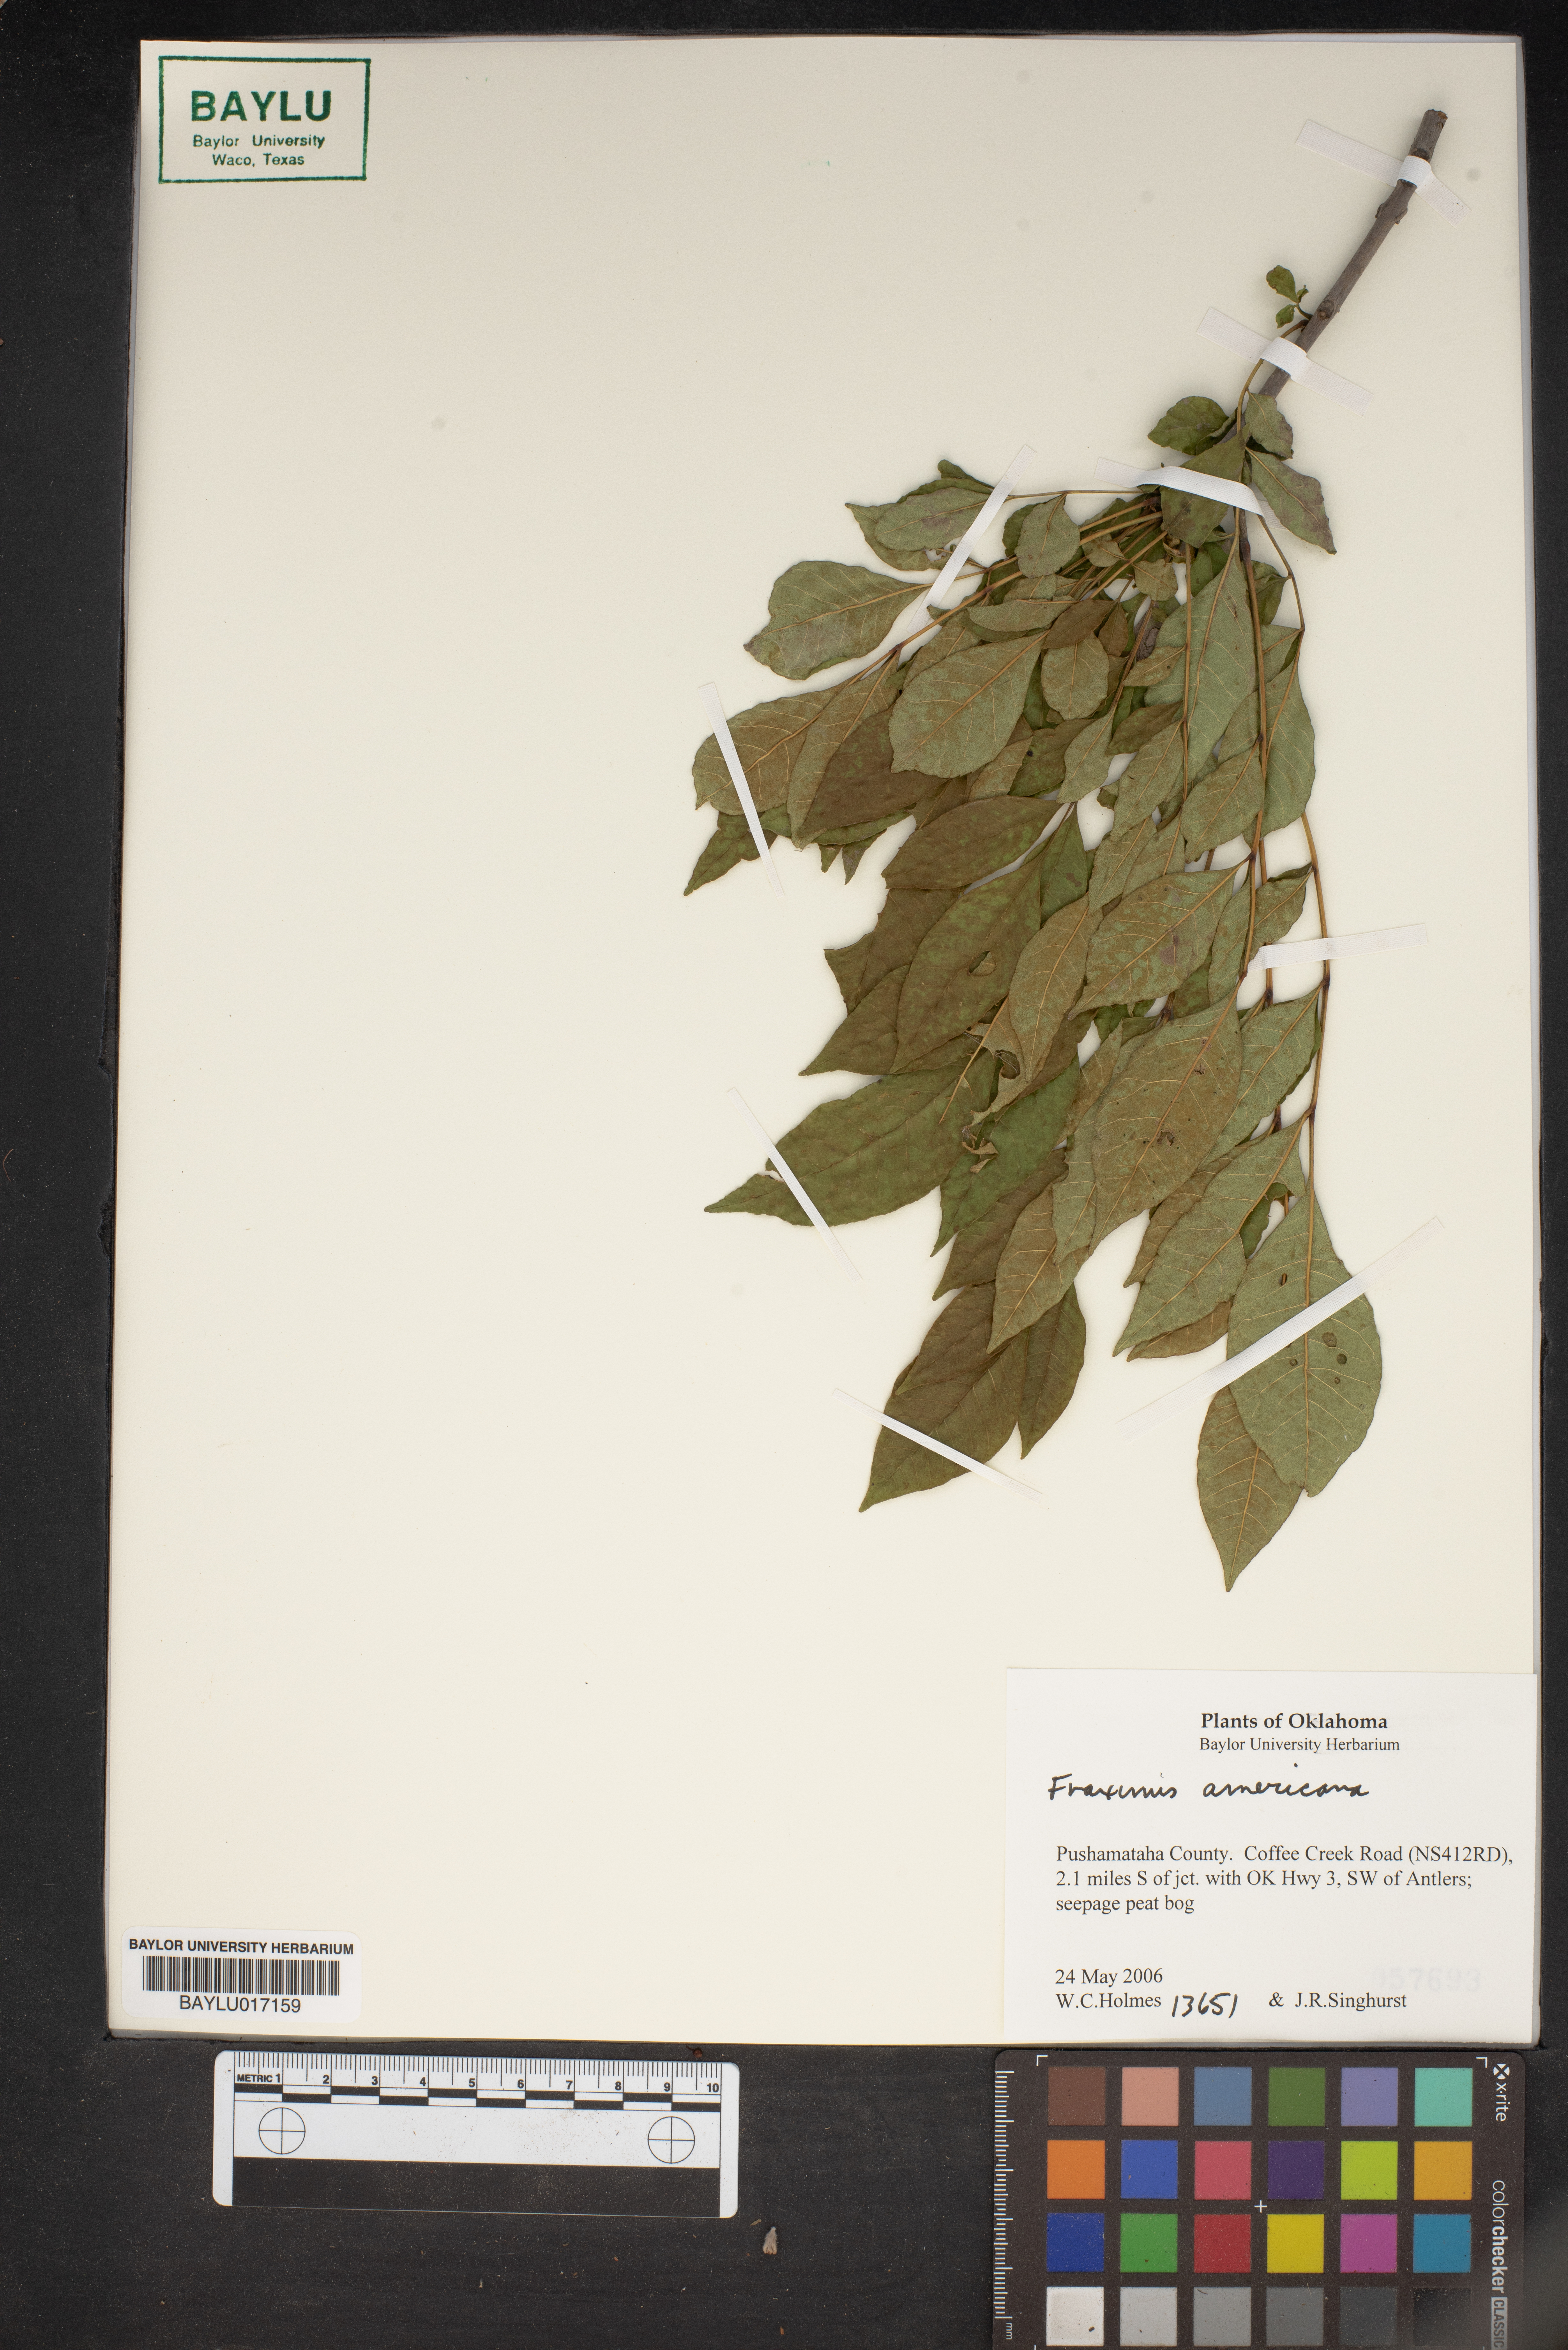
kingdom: Plantae
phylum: Tracheophyta
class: Magnoliopsida
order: Lamiales
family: Oleaceae
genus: Fraxinus
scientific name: Fraxinus americana
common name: White ash
